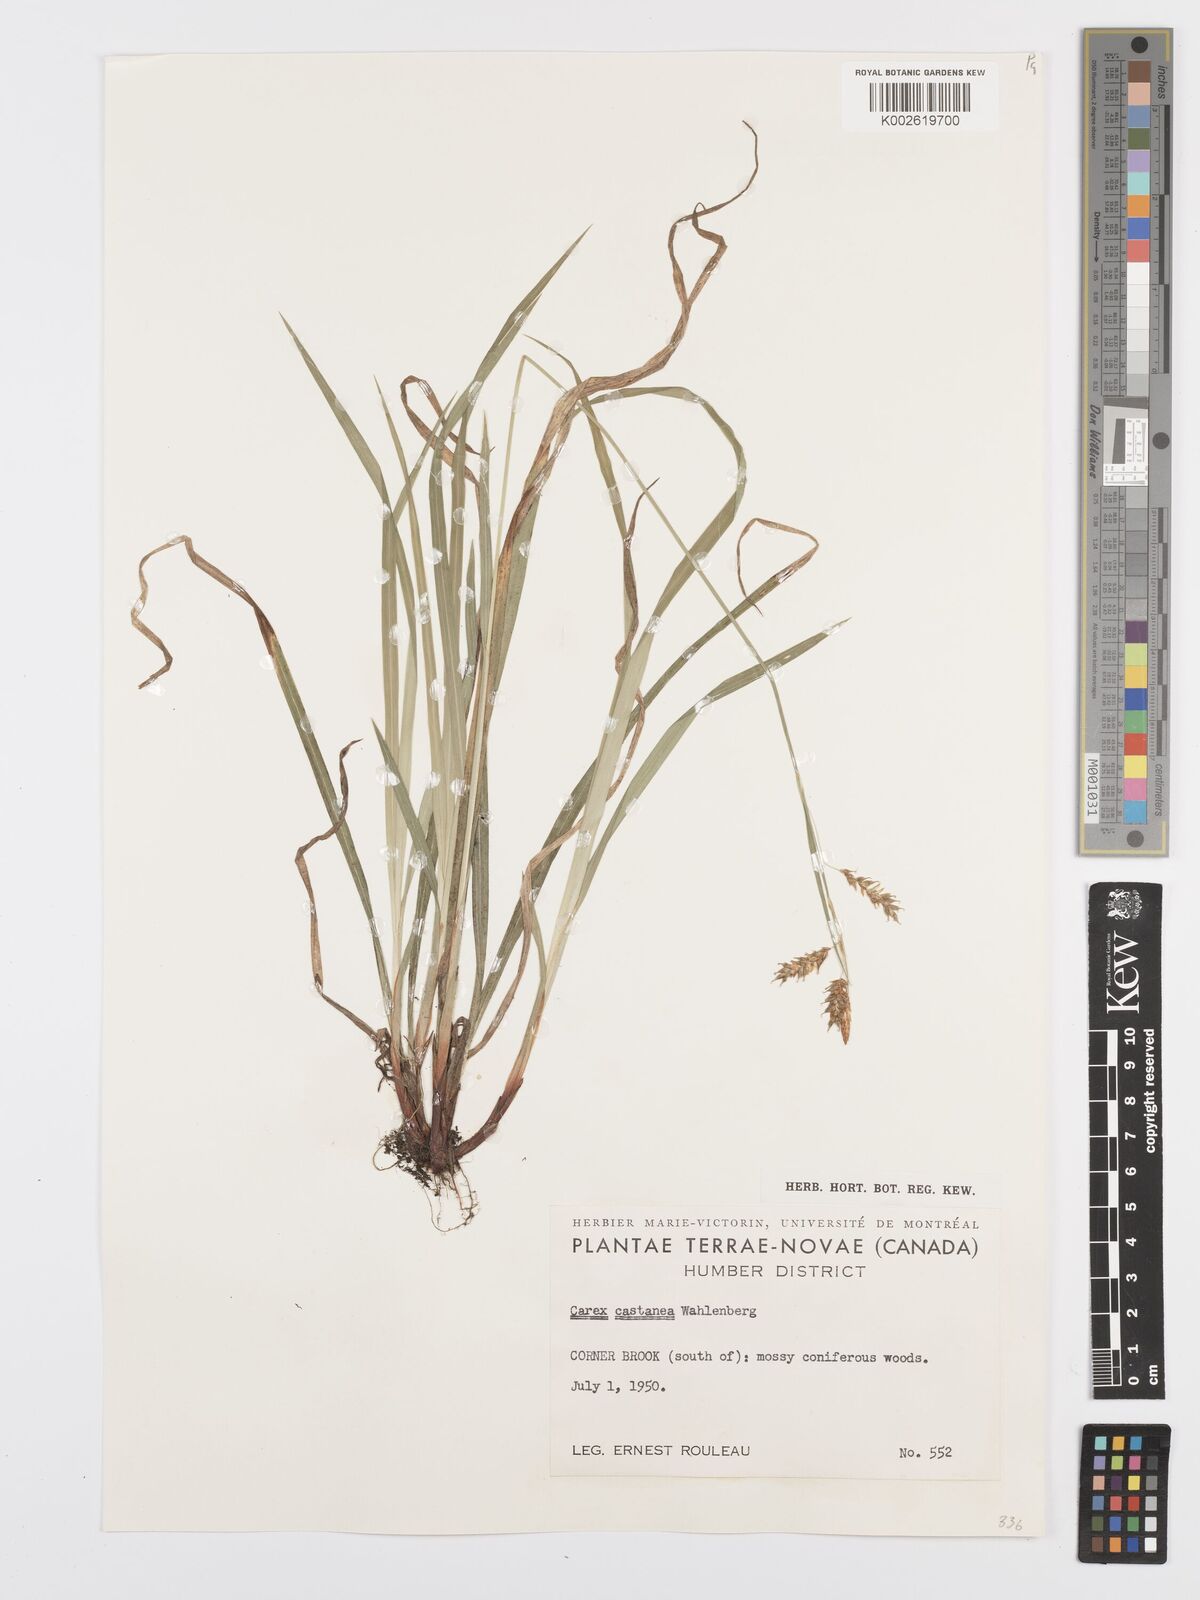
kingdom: Plantae
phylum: Tracheophyta
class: Liliopsida
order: Poales
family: Cyperaceae
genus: Carex
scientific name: Carex castanea
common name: Chestnut sedge
